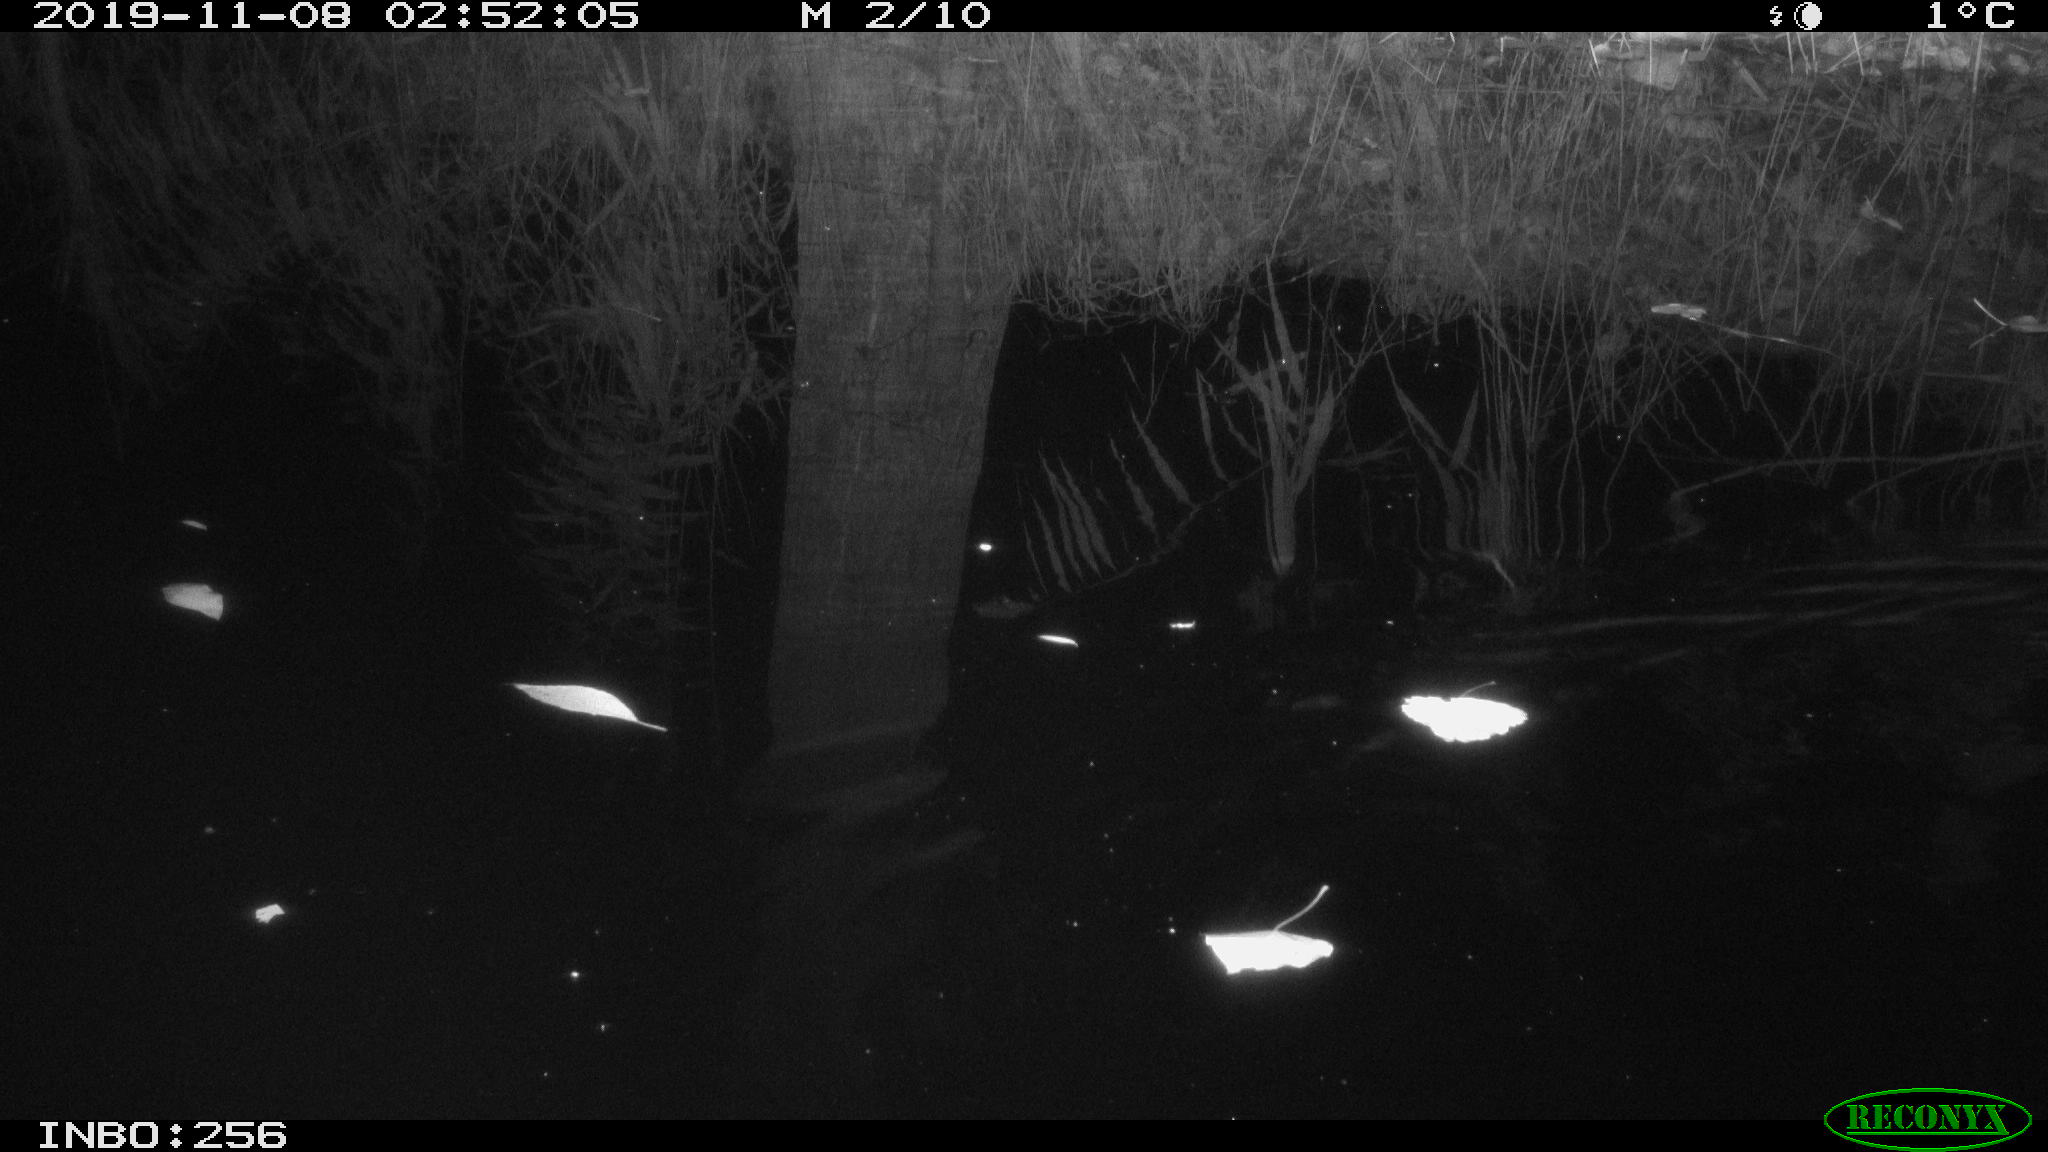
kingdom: Animalia
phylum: Chordata
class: Mammalia
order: Rodentia
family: Muridae
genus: Rattus
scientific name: Rattus norvegicus
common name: Brown rat
